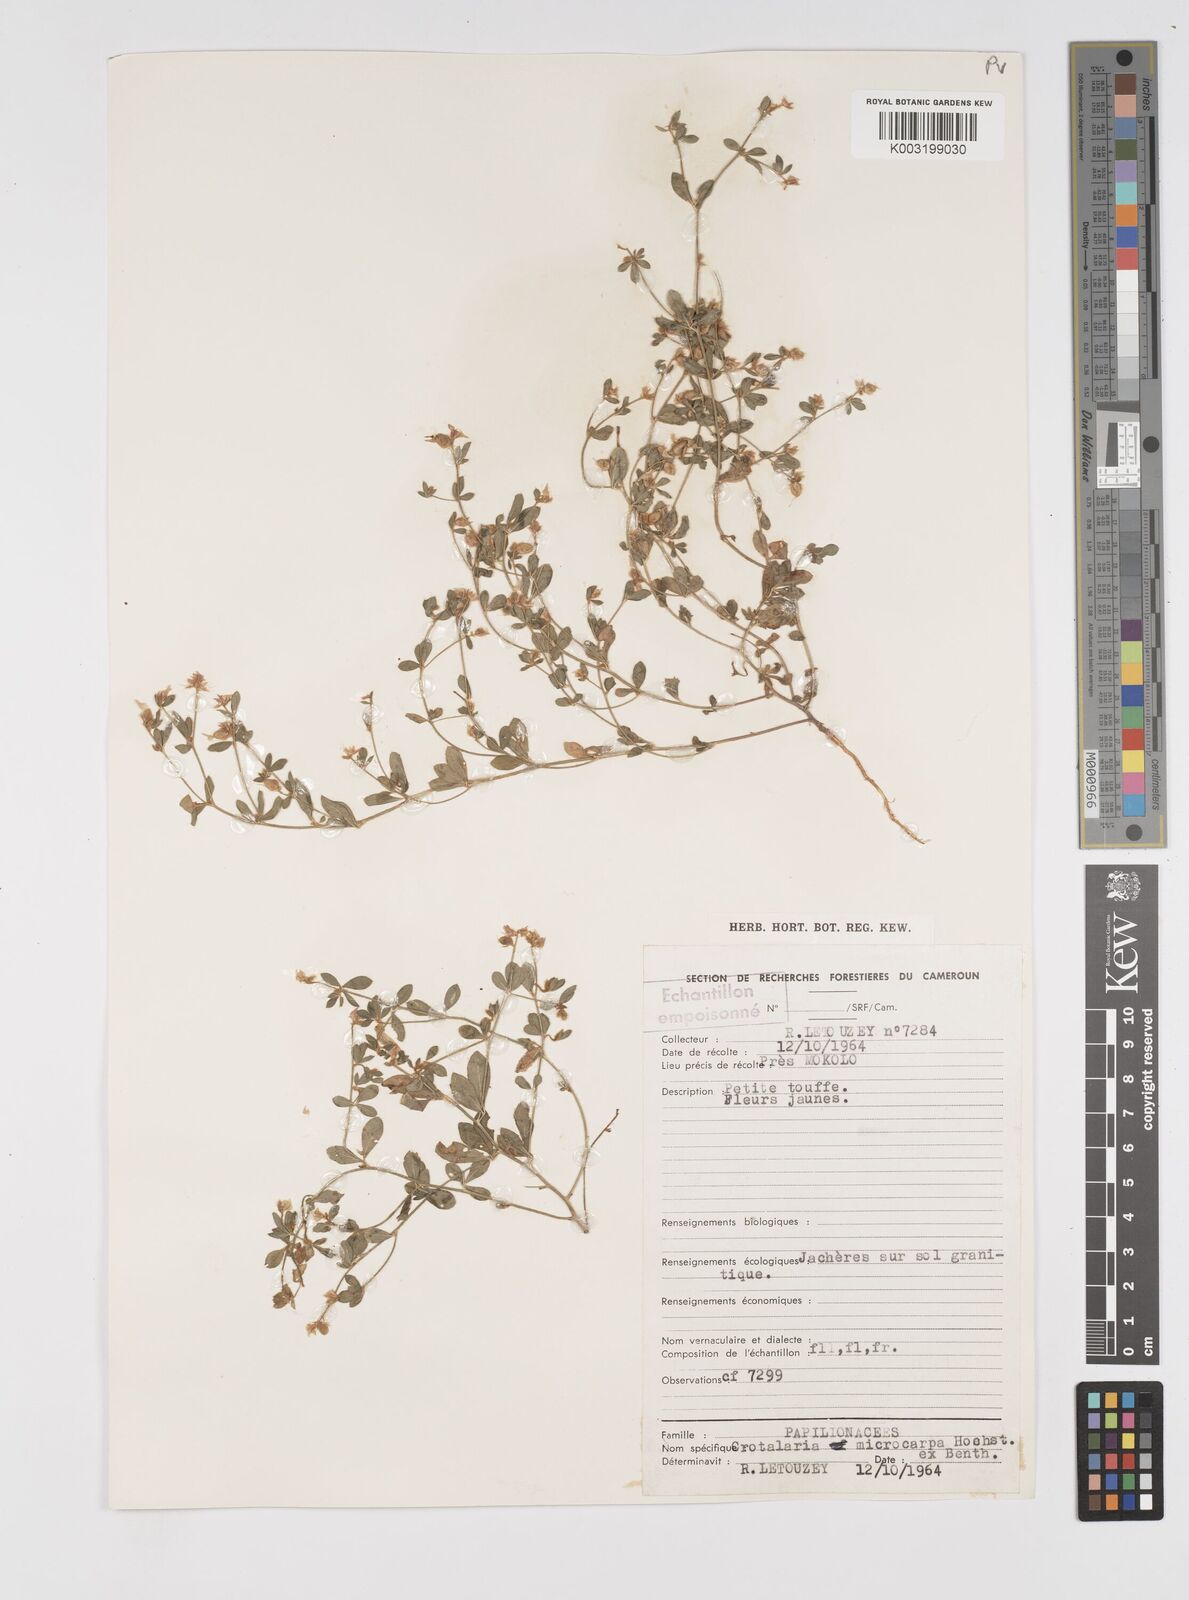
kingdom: Plantae
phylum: Tracheophyta
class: Magnoliopsida
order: Fabales
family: Fabaceae
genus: Crotalaria
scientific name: Crotalaria microcarpa
